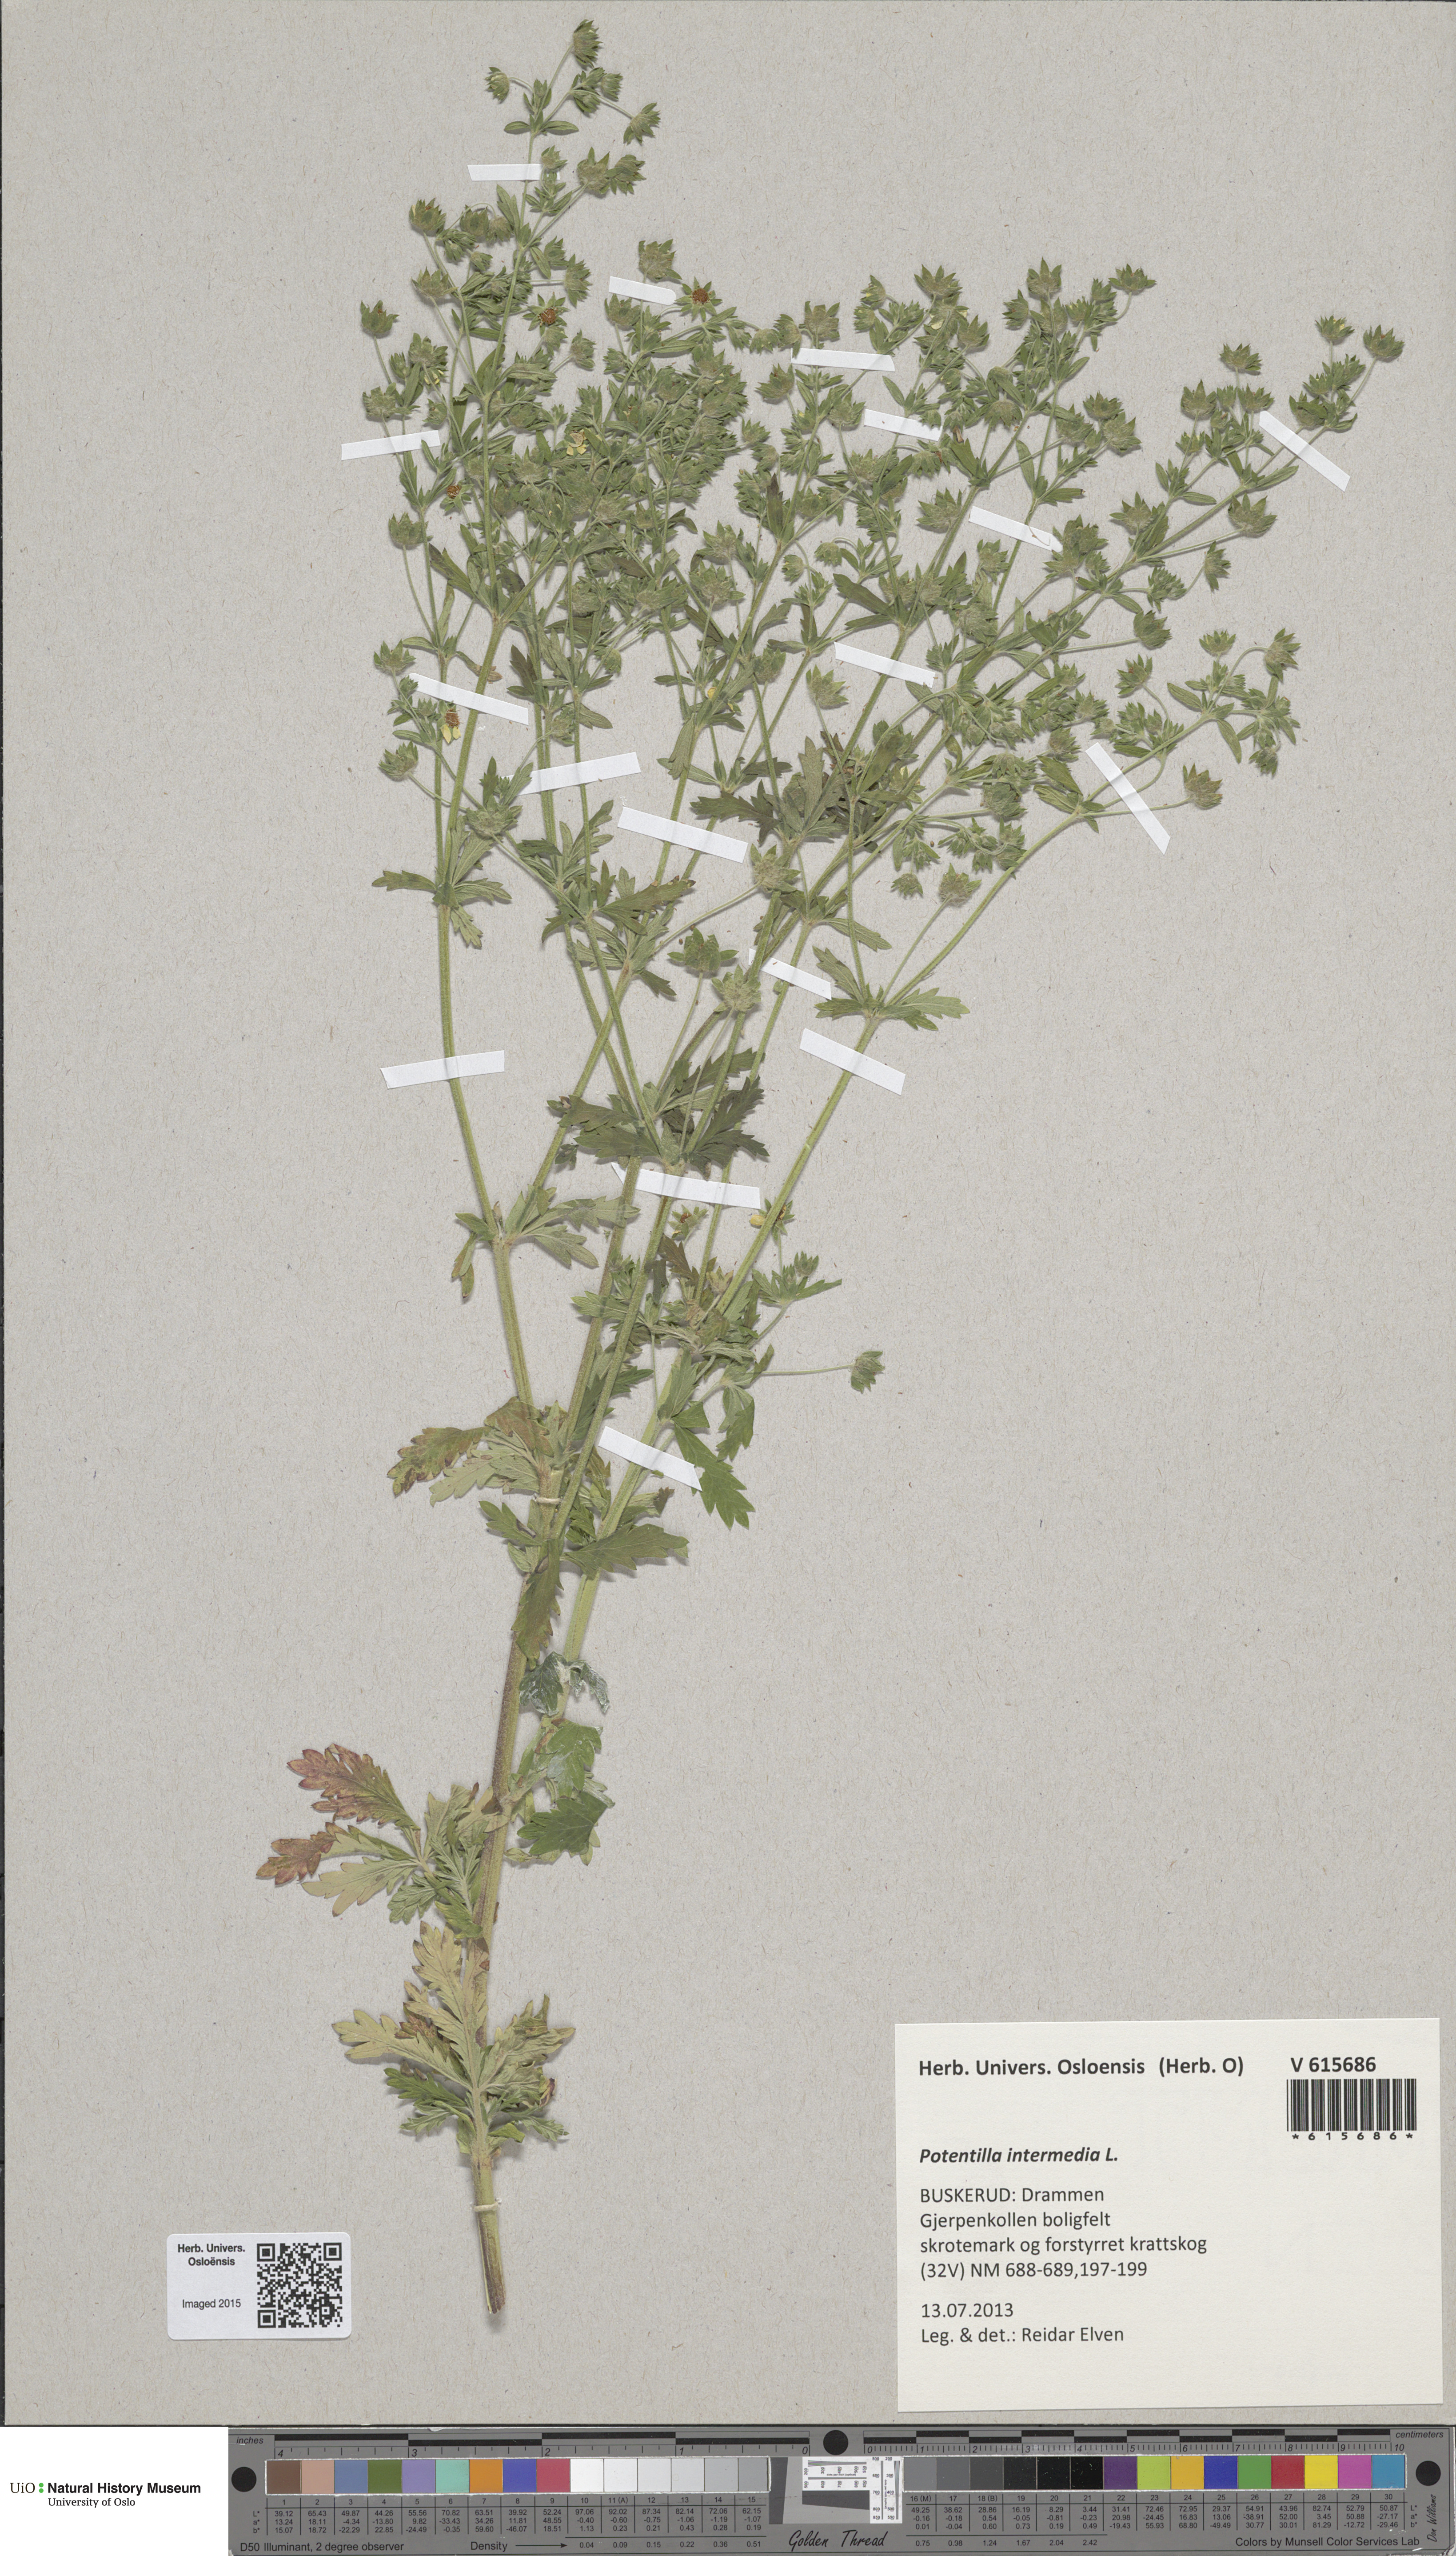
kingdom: Plantae
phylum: Tracheophyta
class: Magnoliopsida
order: Rosales
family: Rosaceae
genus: Potentilla
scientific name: Potentilla intermedia
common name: Downy cinquefoil
